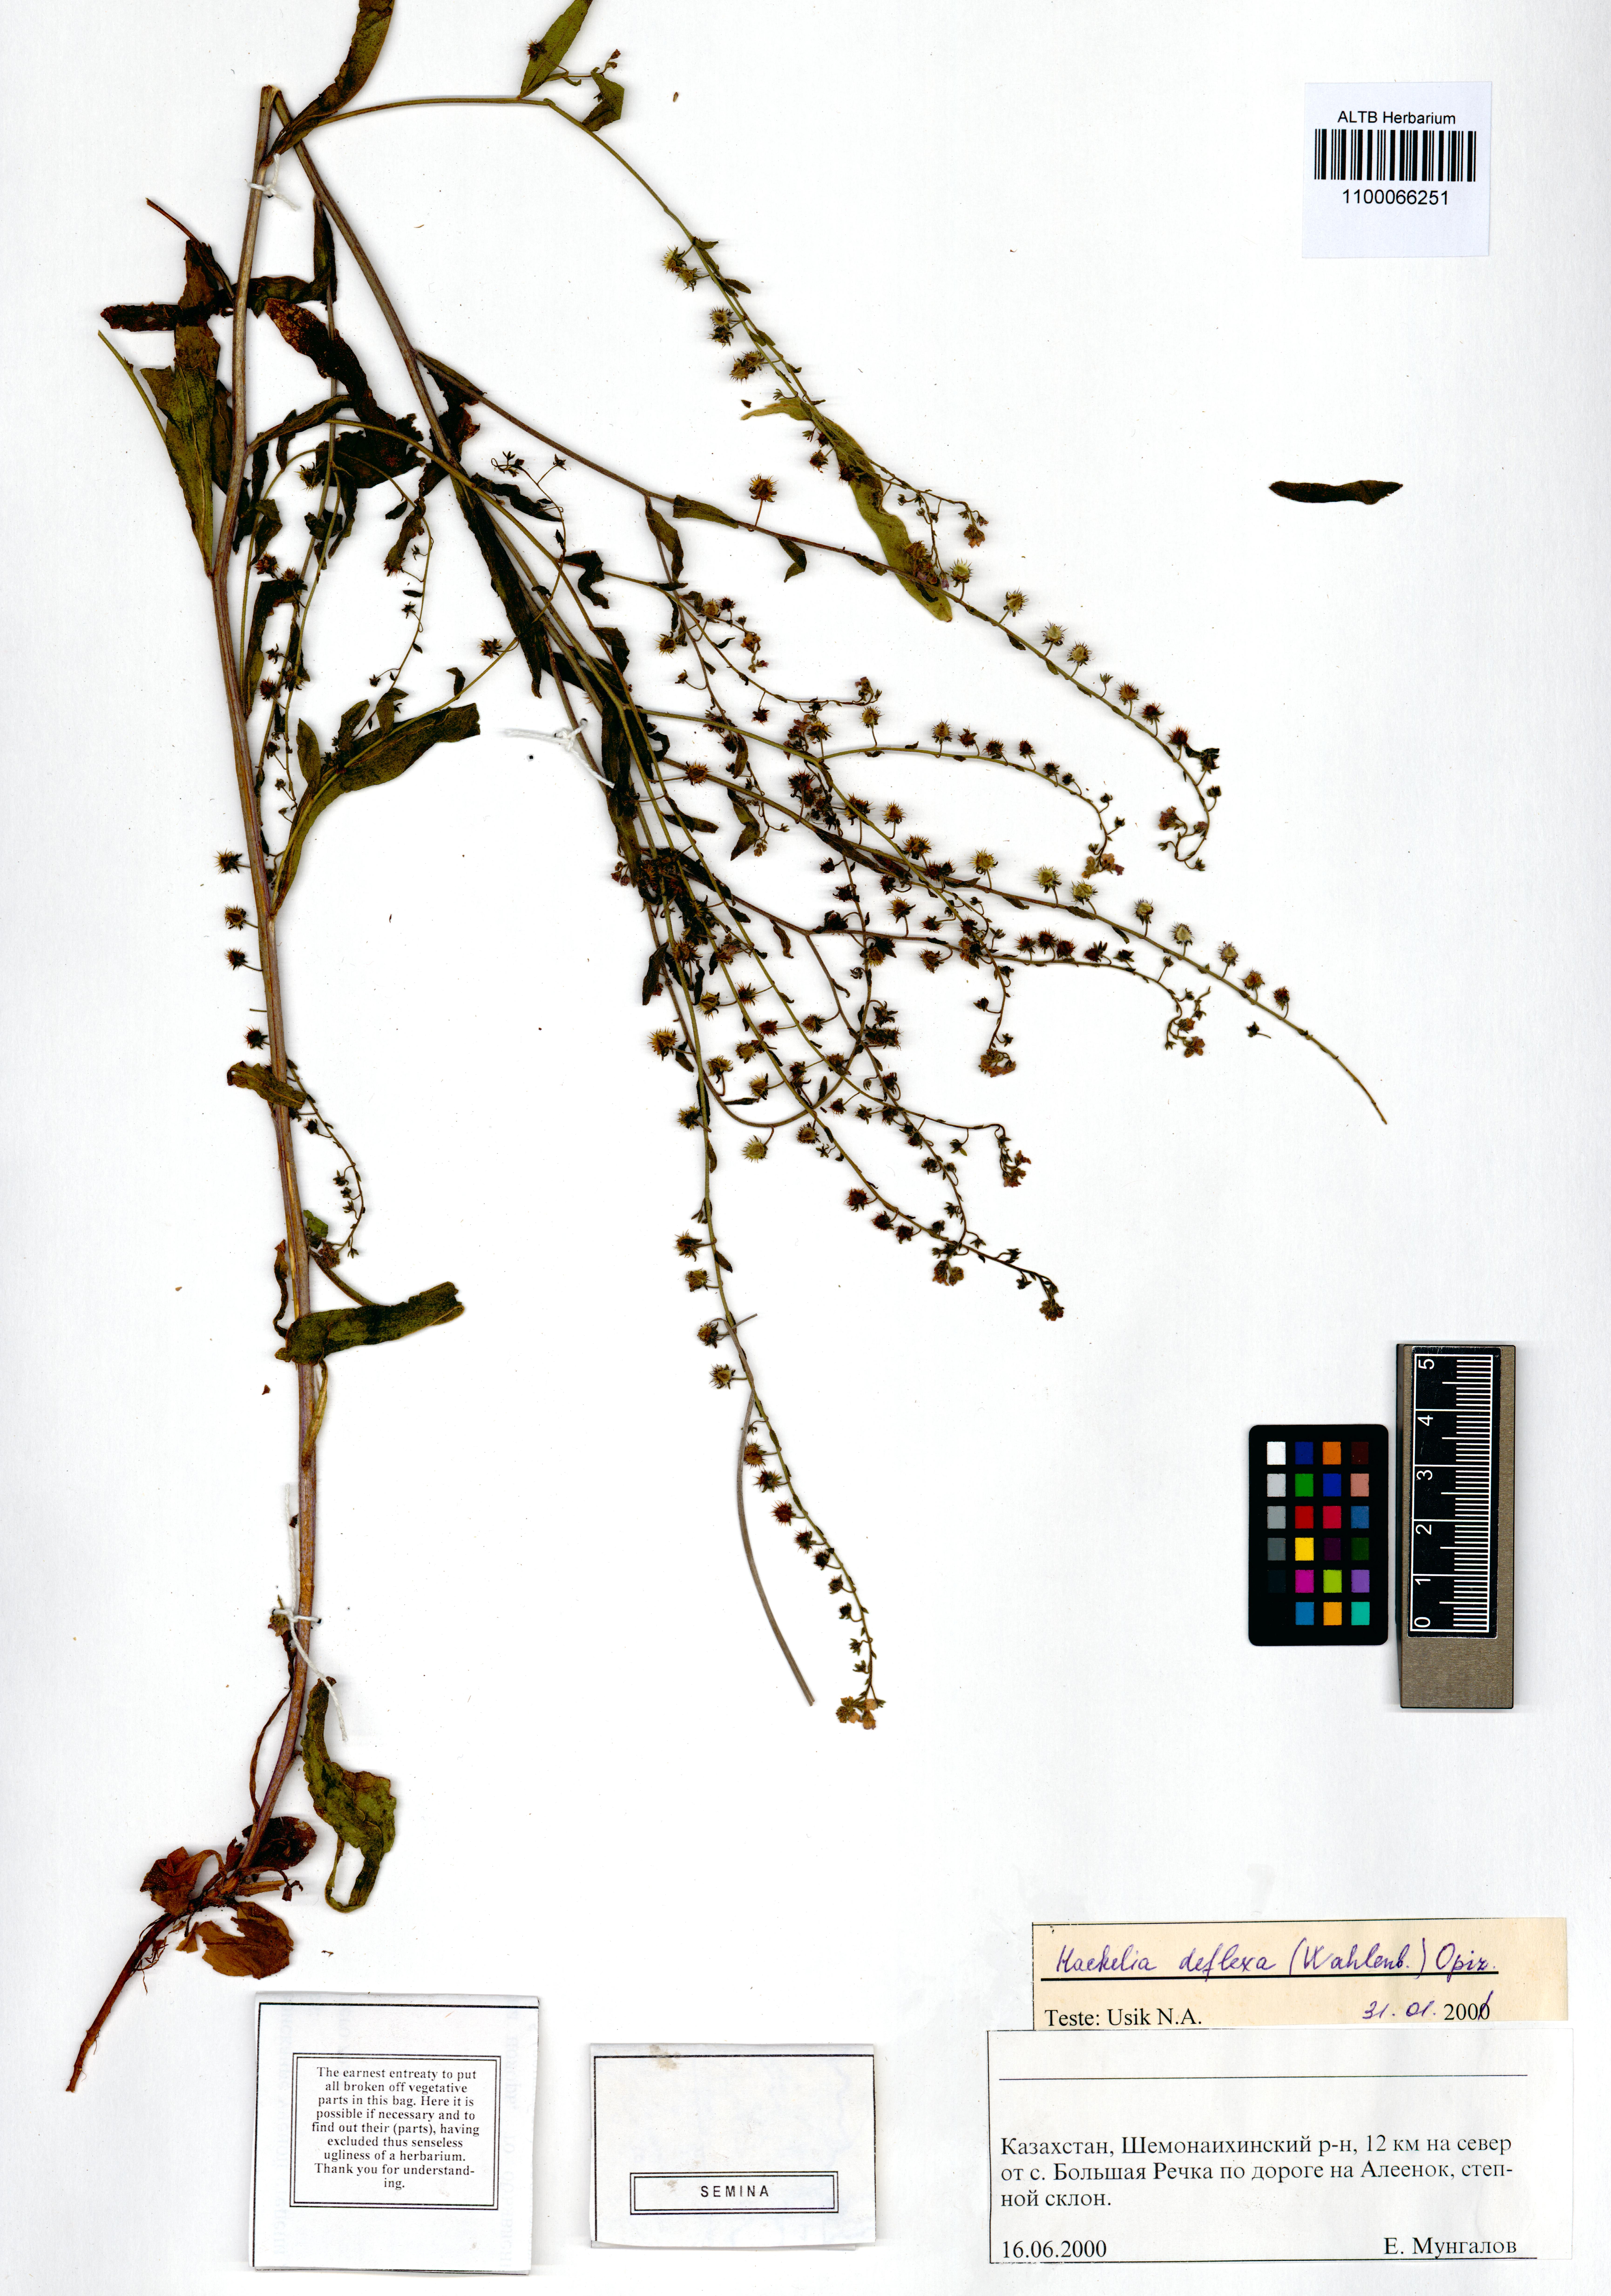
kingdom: Plantae
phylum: Tracheophyta
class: Magnoliopsida
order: Boraginales
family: Boraginaceae
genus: Hackelia
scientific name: Hackelia deflexa
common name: Nodding stickseed
